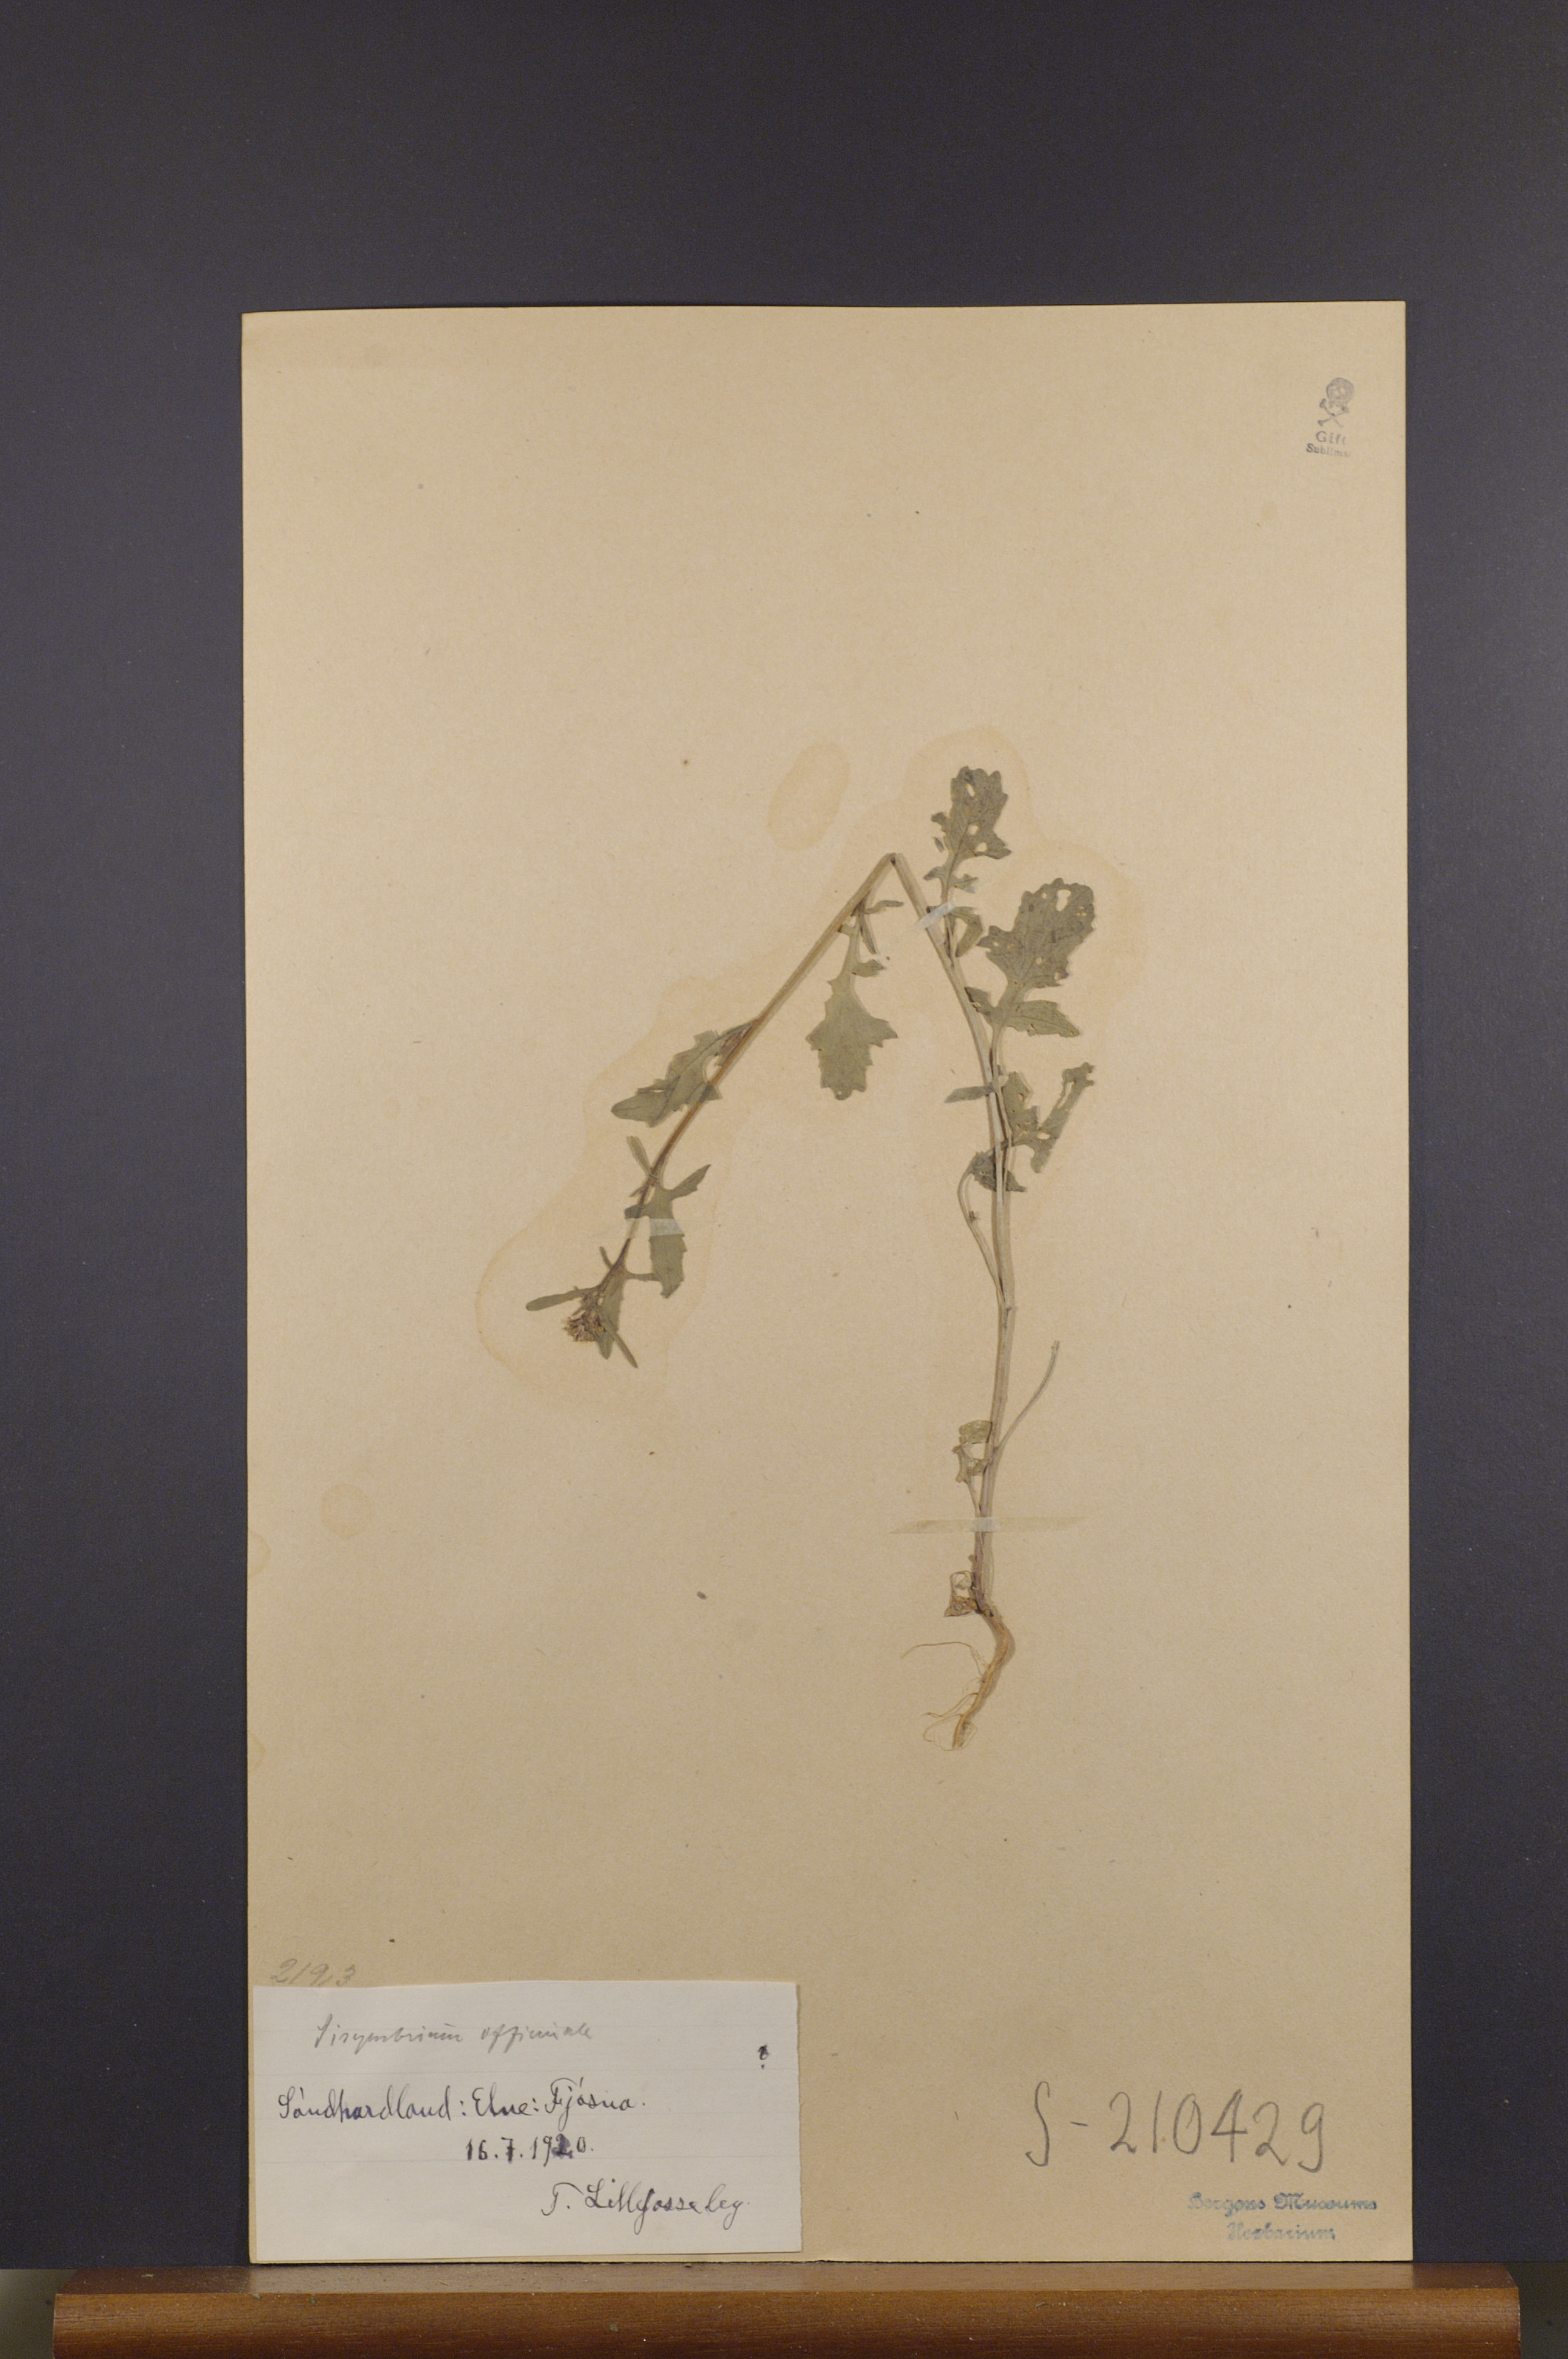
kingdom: Plantae
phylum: Tracheophyta
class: Magnoliopsida
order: Brassicales
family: Brassicaceae
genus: Sisymbrium
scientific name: Sisymbrium officinale
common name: Hedge mustard
